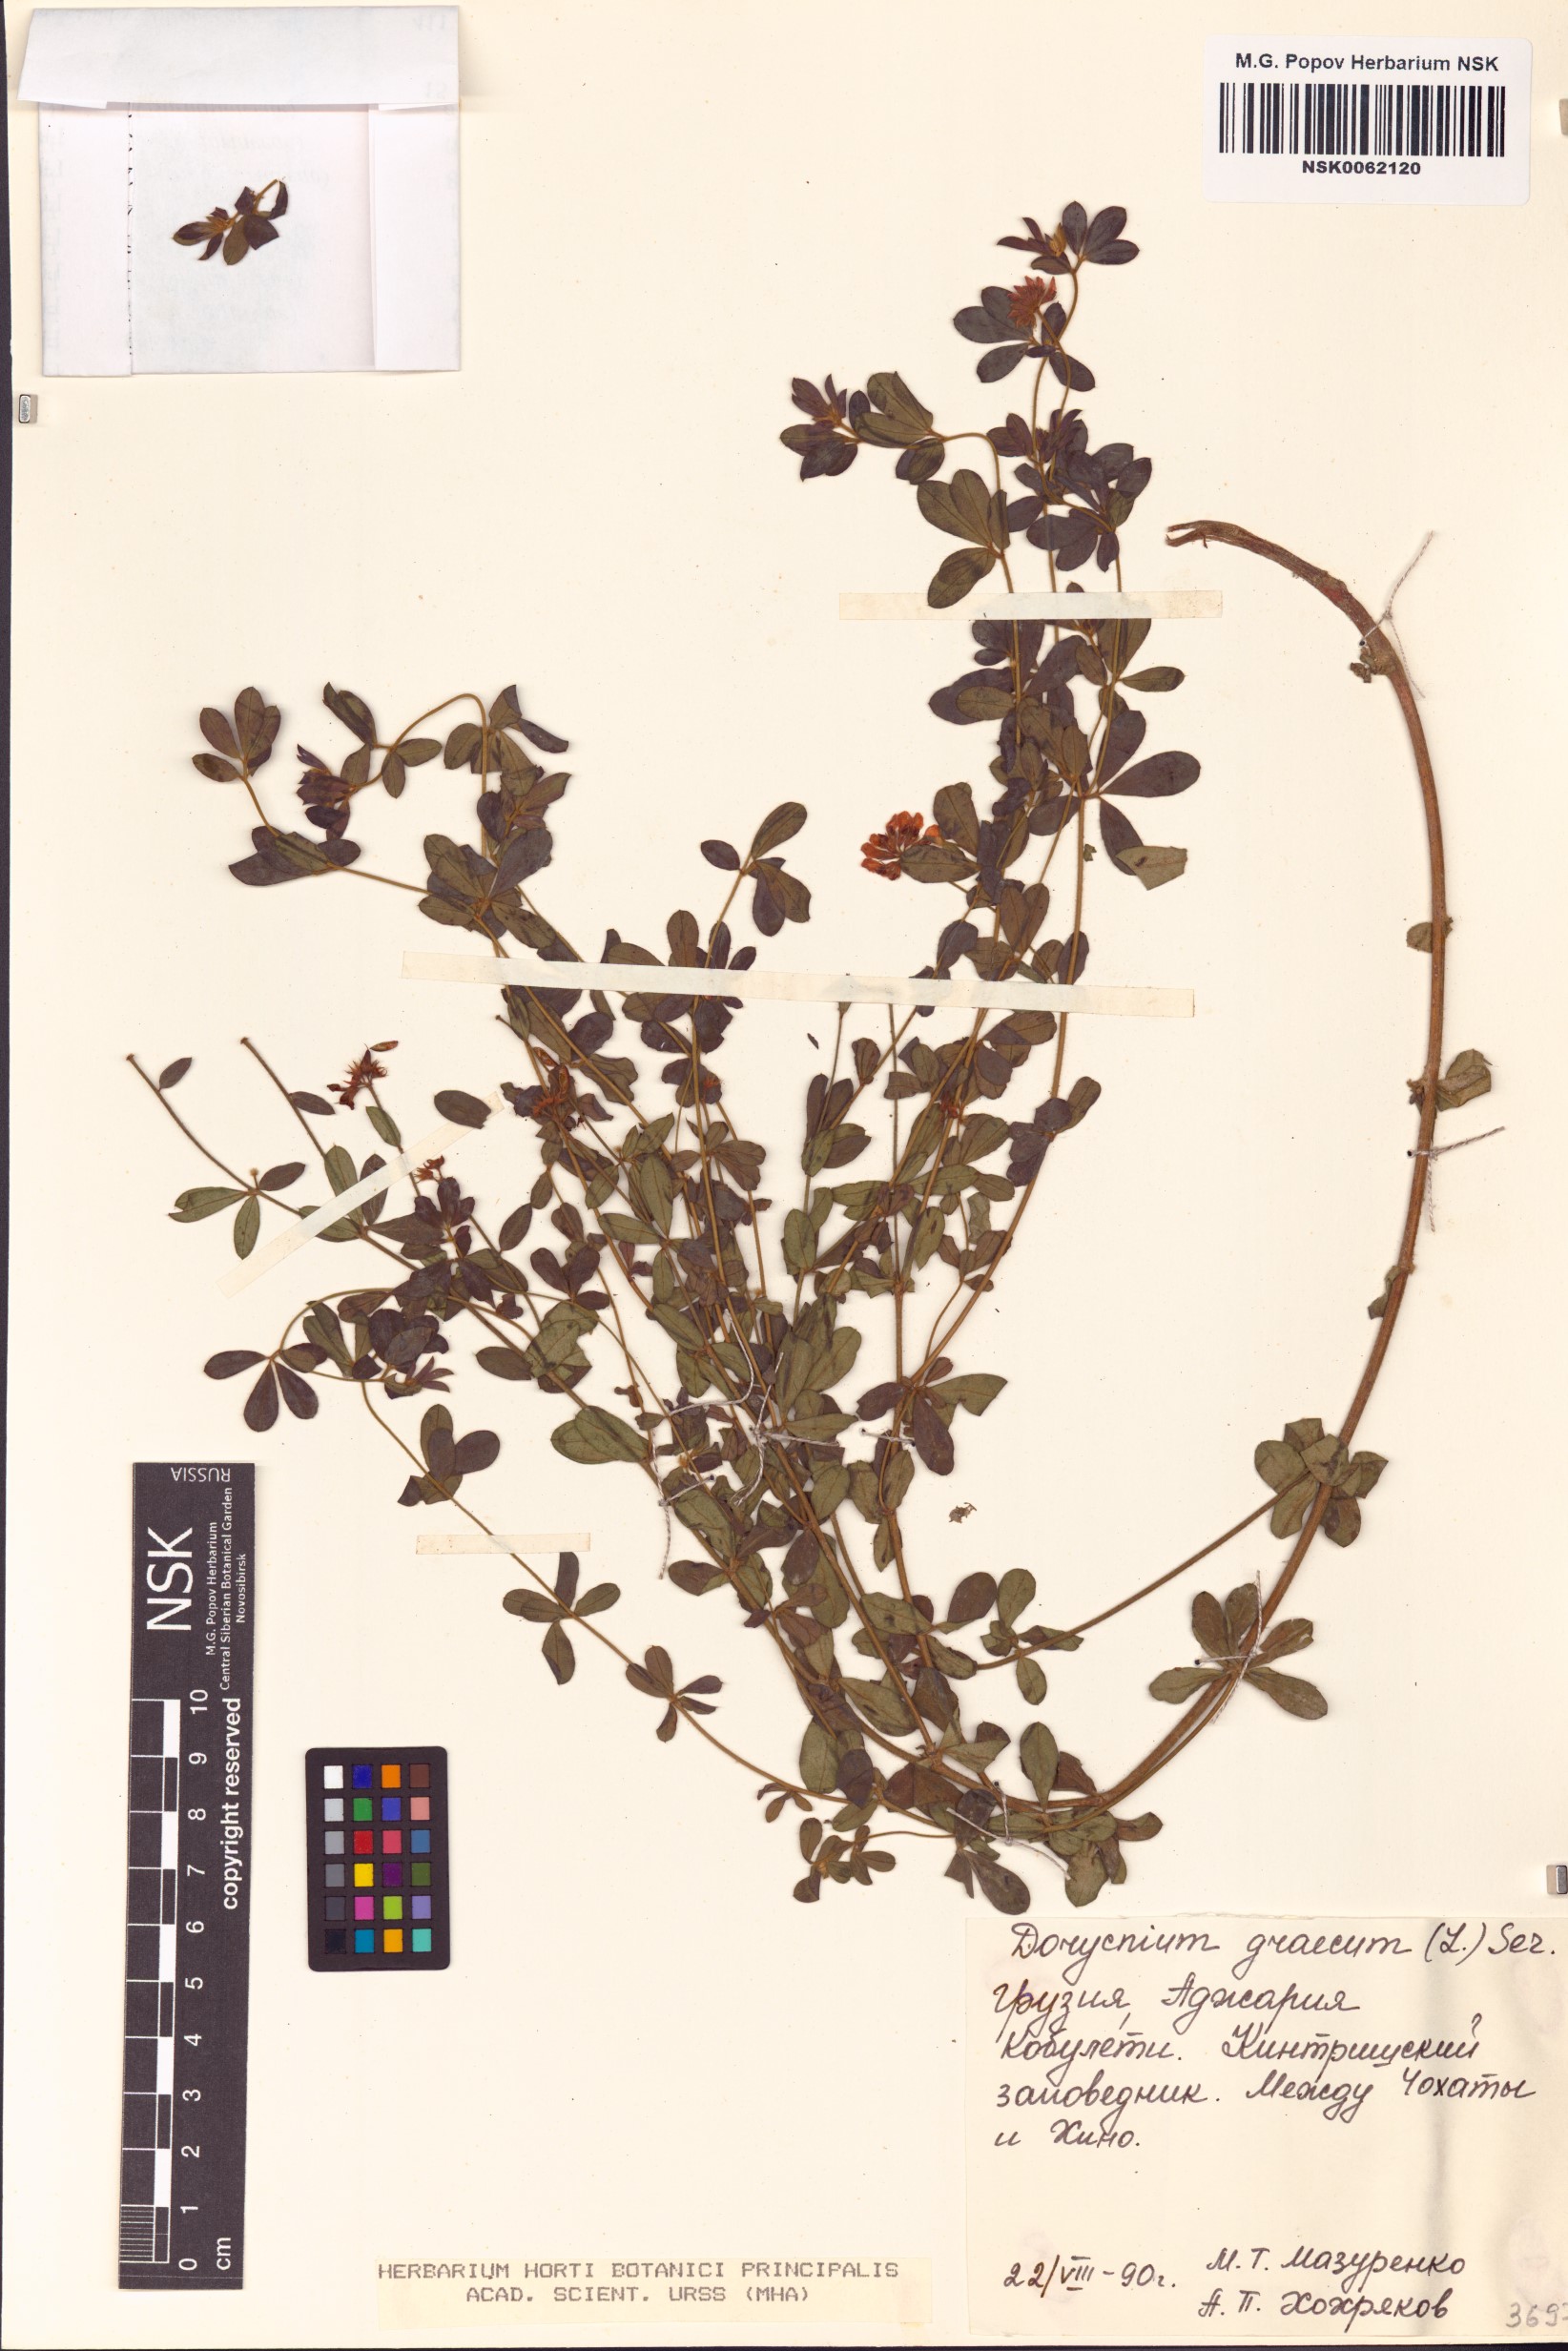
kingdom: Plantae
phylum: Tracheophyta
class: Magnoliopsida
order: Fabales
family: Fabaceae
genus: Lotus
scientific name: Lotus graecus
